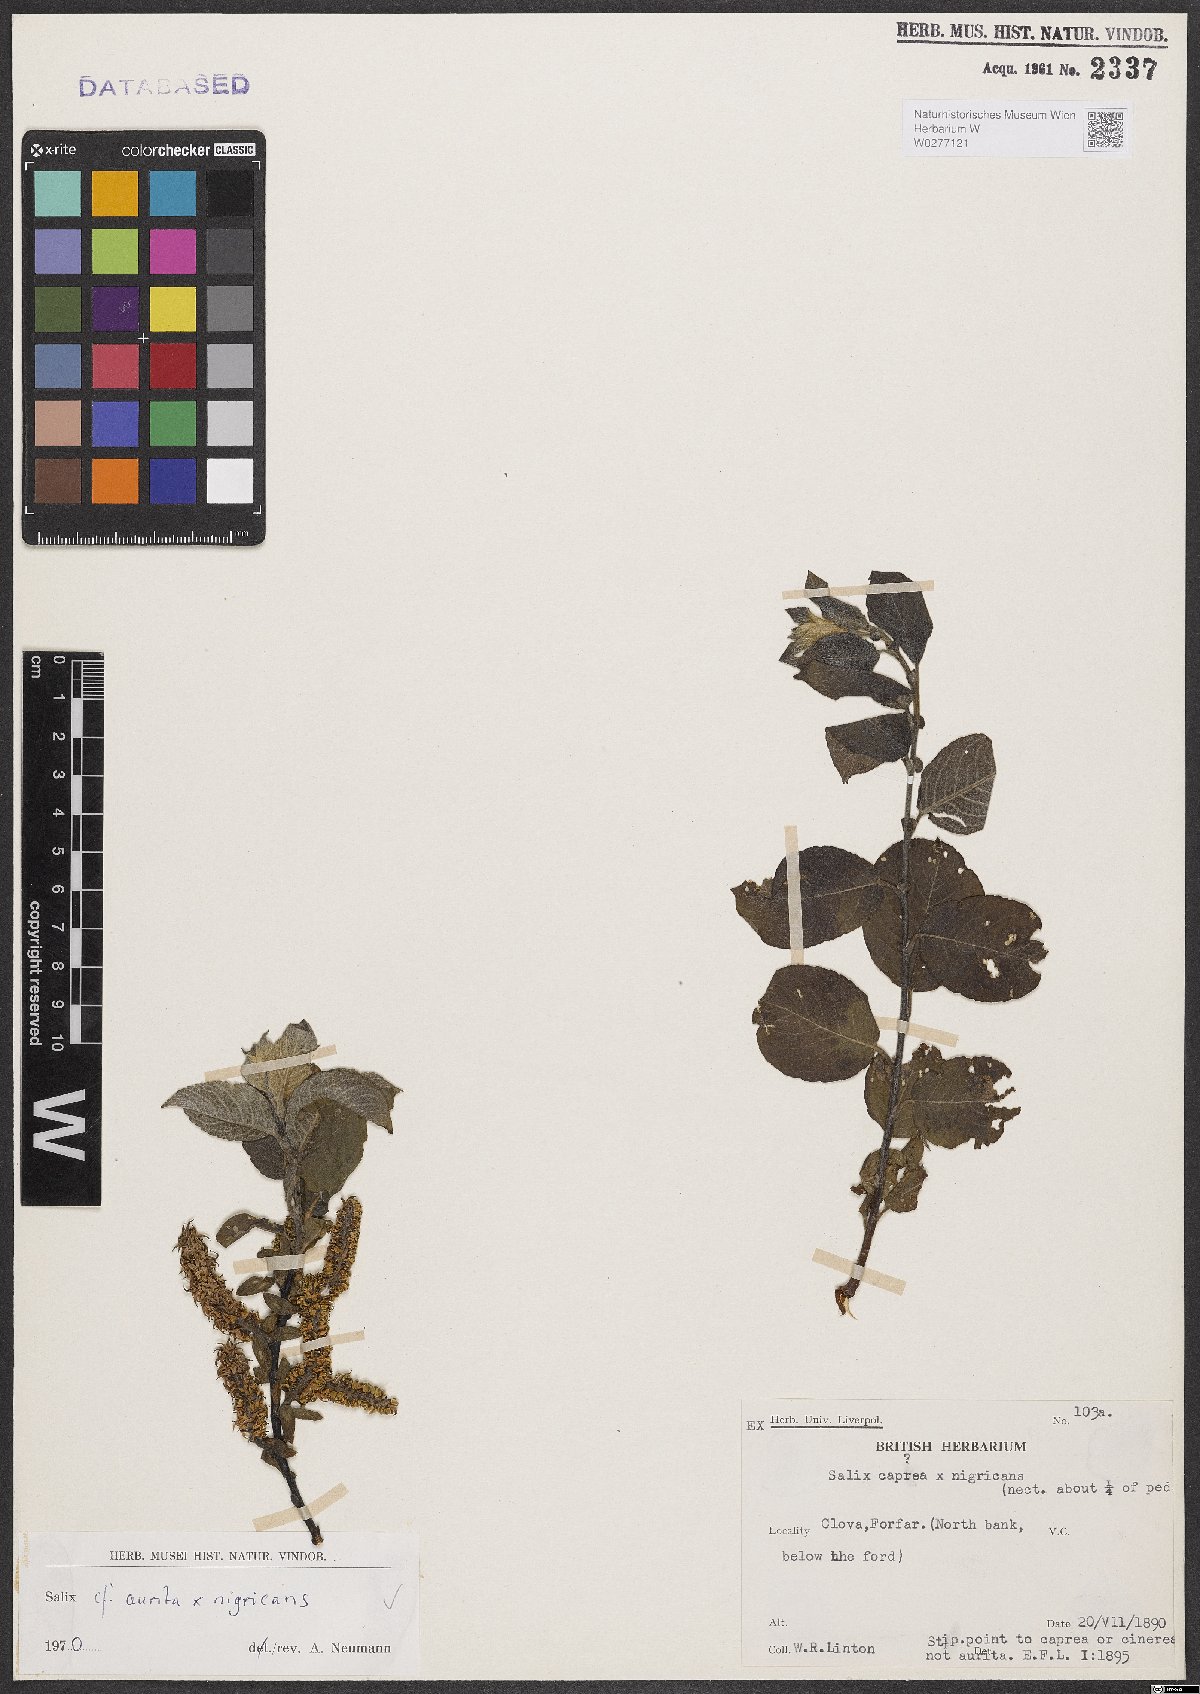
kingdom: Plantae
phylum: Tracheophyta
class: Magnoliopsida
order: Malpighiales
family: Salicaceae
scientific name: Salicaceae
